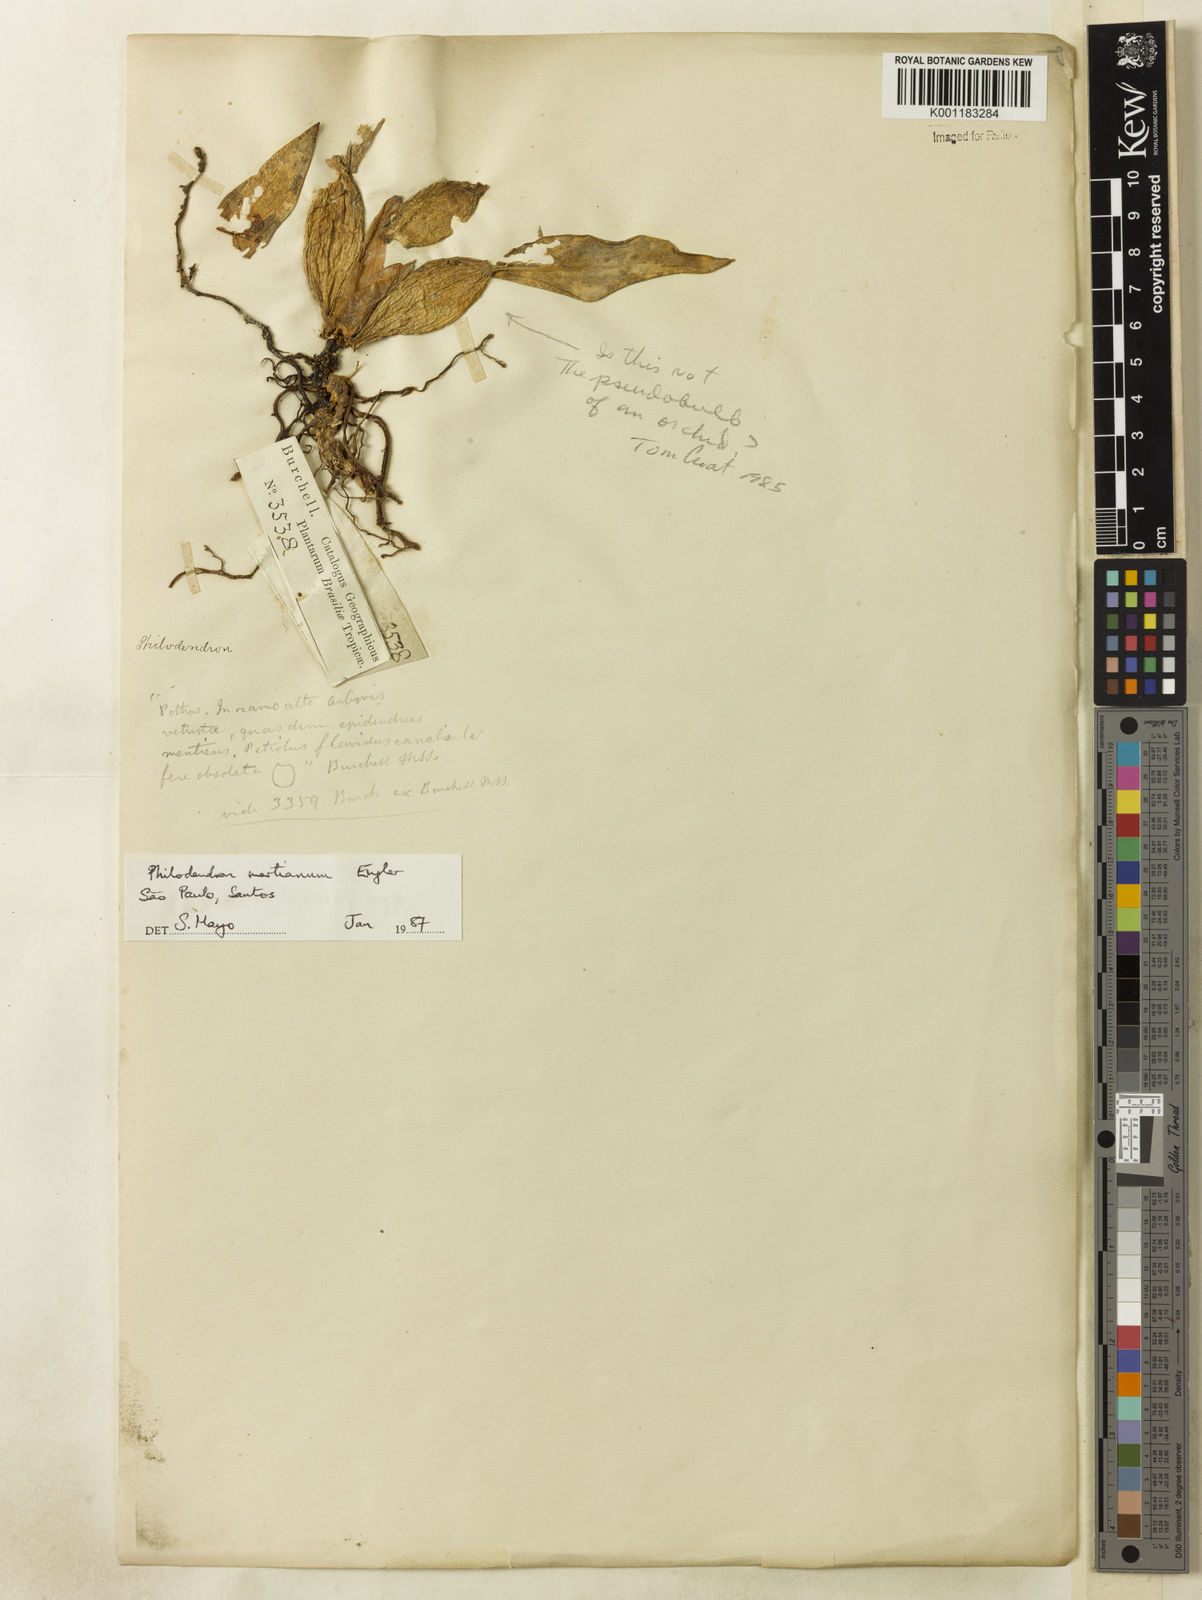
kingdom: Plantae
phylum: Tracheophyta
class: Liliopsida
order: Alismatales
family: Araceae
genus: Philodendron
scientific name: Philodendron martianum
